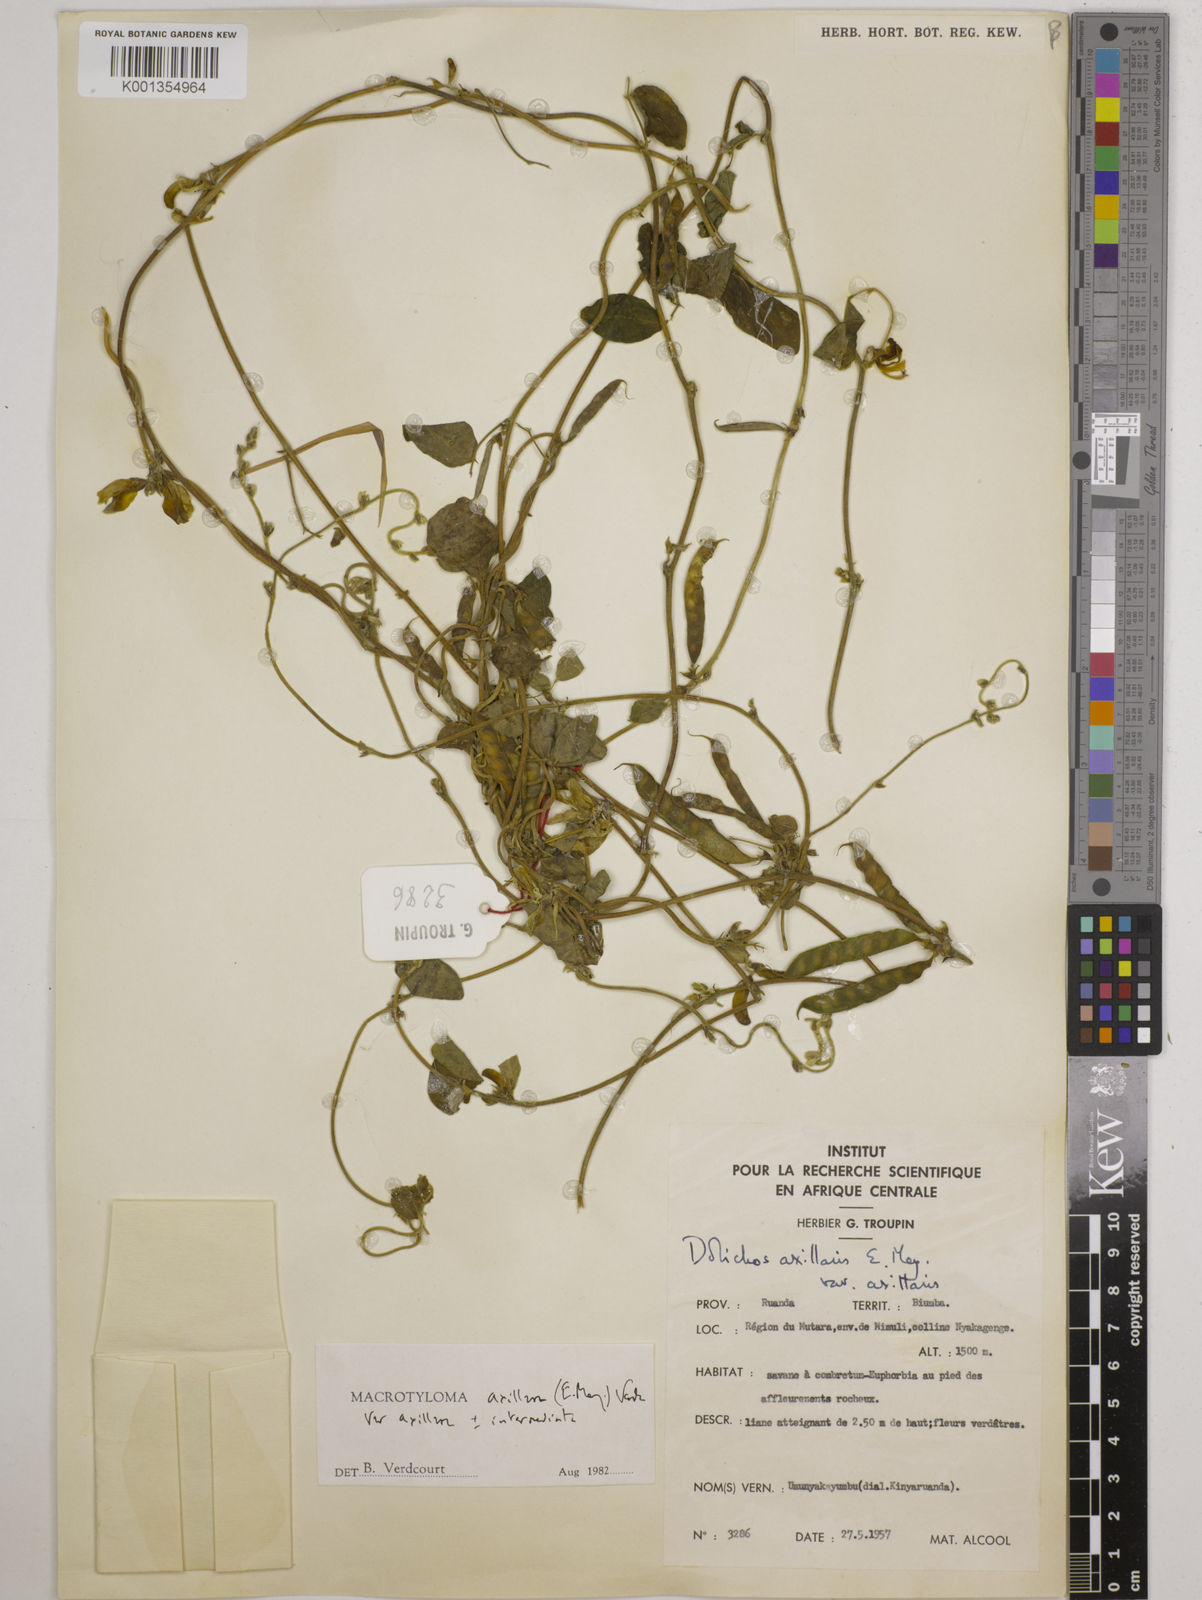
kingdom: Plantae
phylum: Tracheophyta
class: Magnoliopsida
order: Fabales
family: Fabaceae
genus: Macrotyloma
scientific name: Macrotyloma axillare
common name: Perennial horsegram
